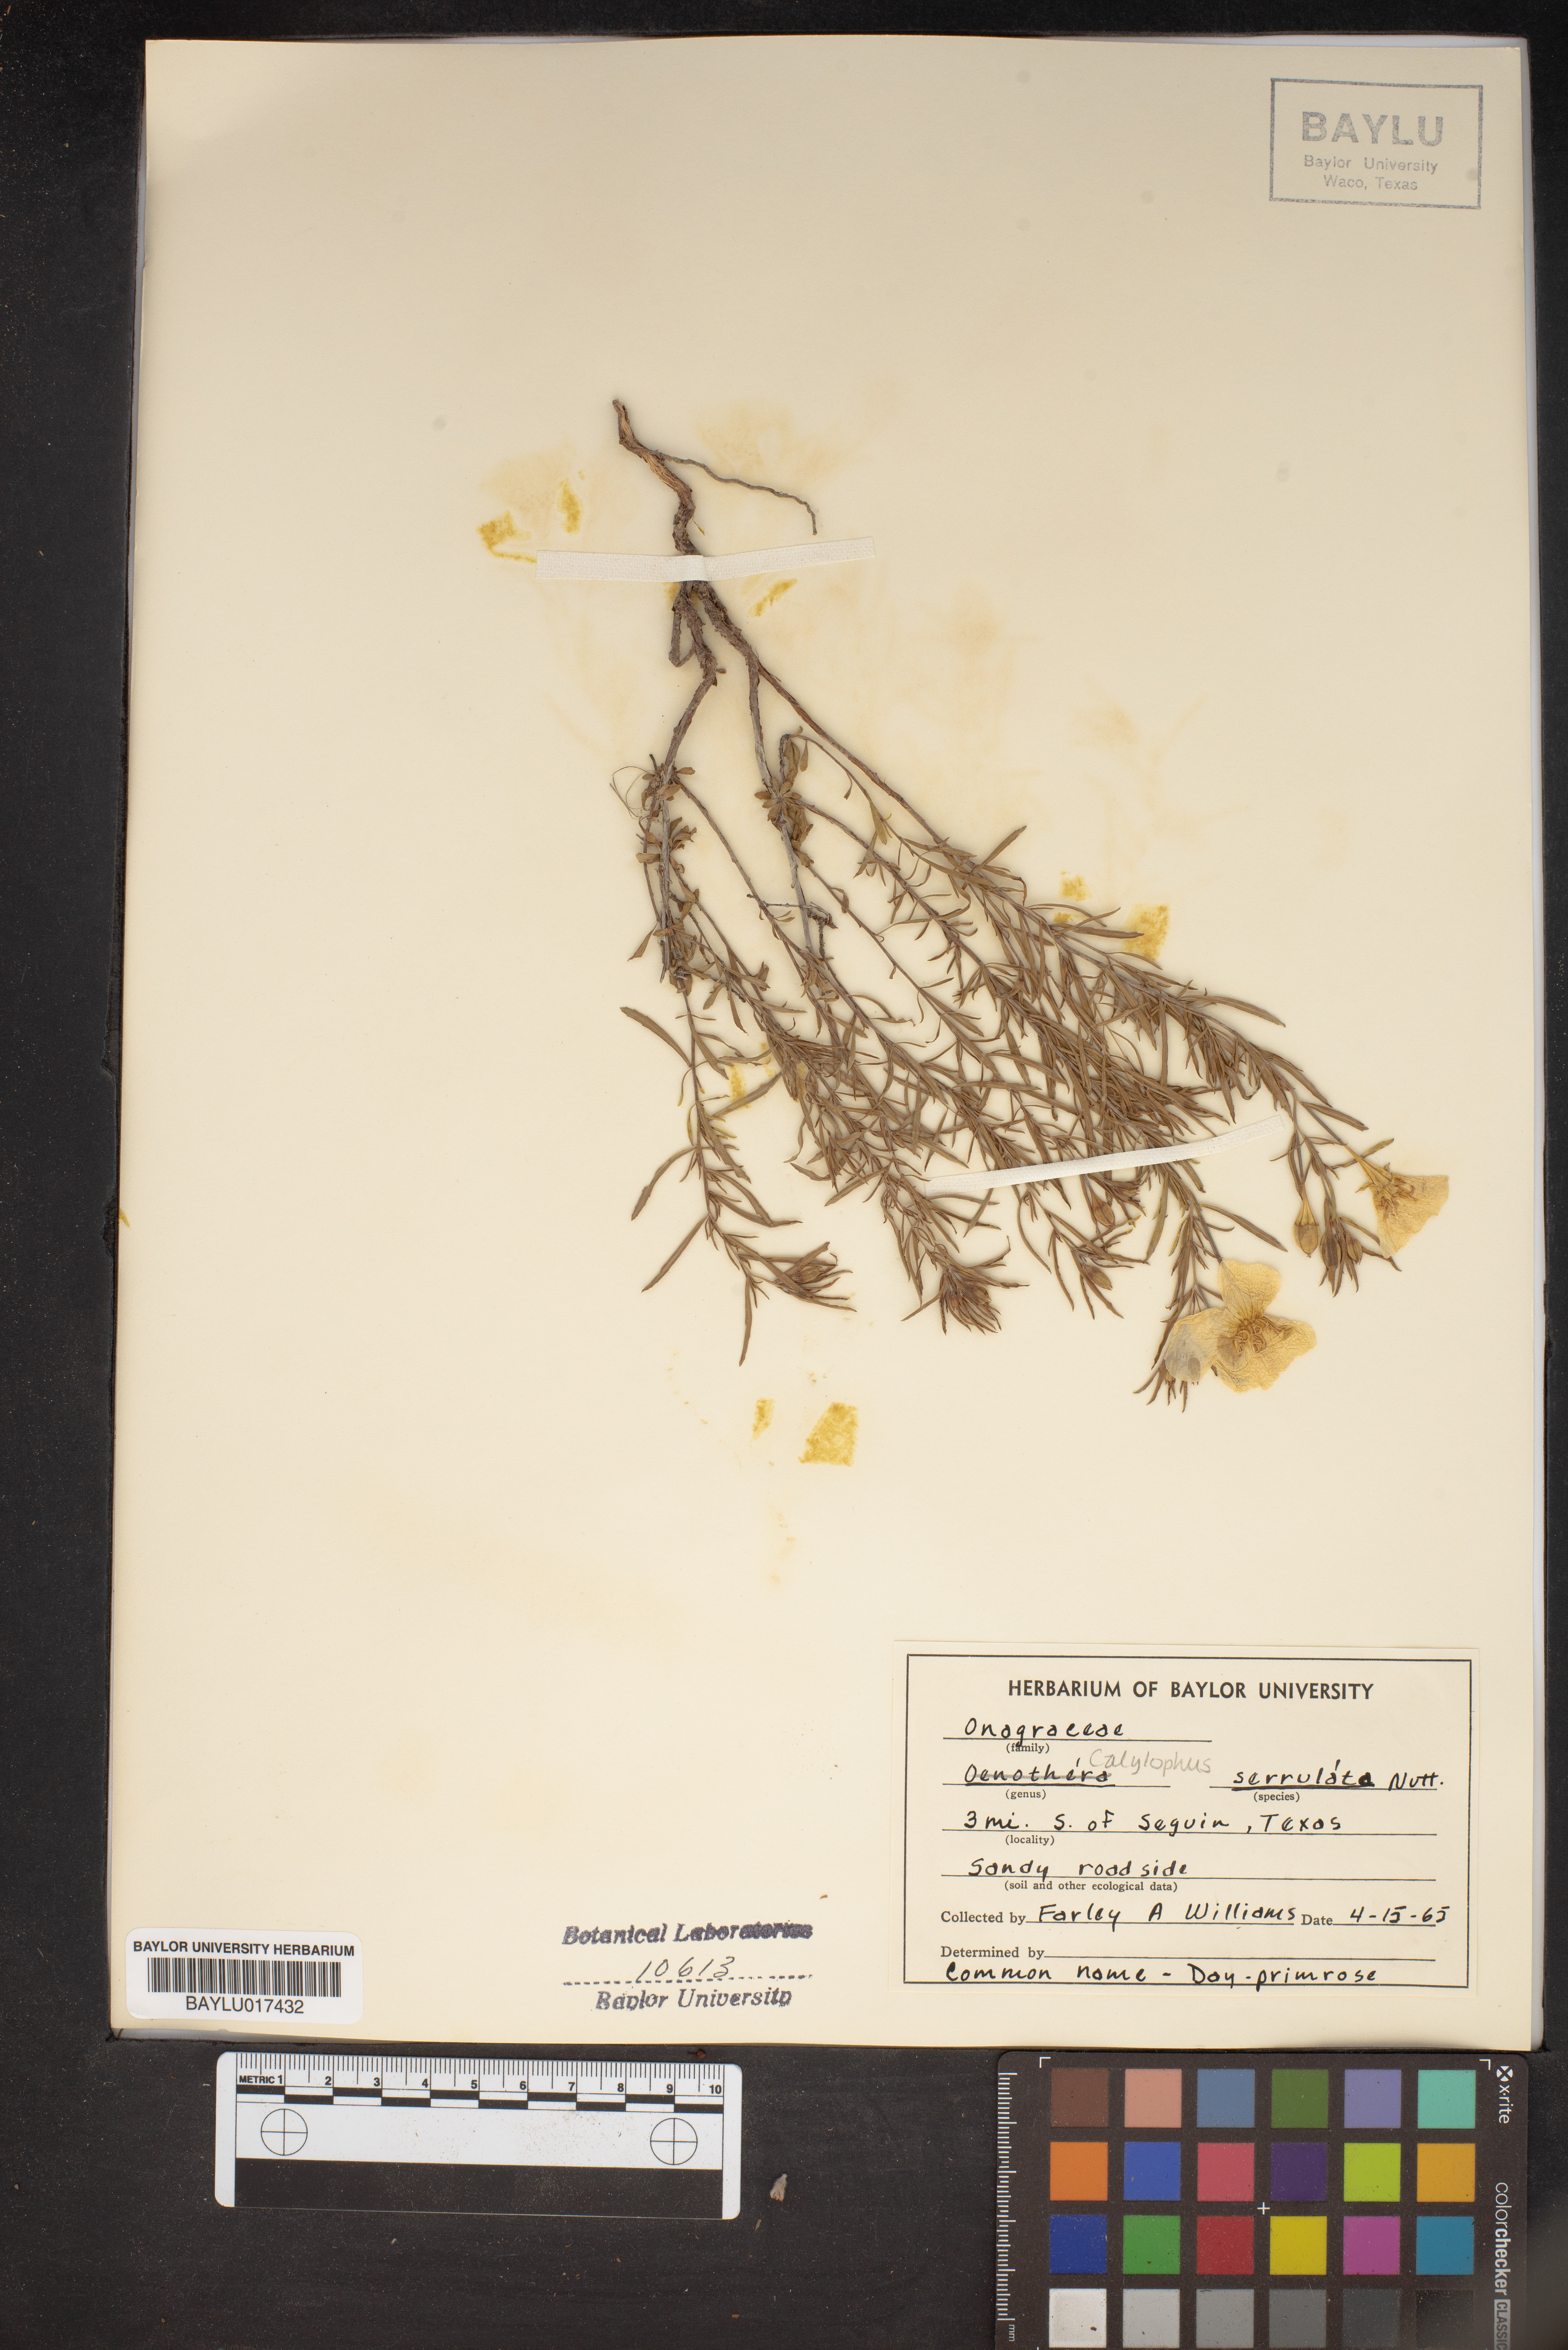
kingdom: Plantae
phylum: Tracheophyta
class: Magnoliopsida
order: Myrtales
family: Onagraceae
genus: Oenothera
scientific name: Oenothera serrulata
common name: Half-shrub calylophus
